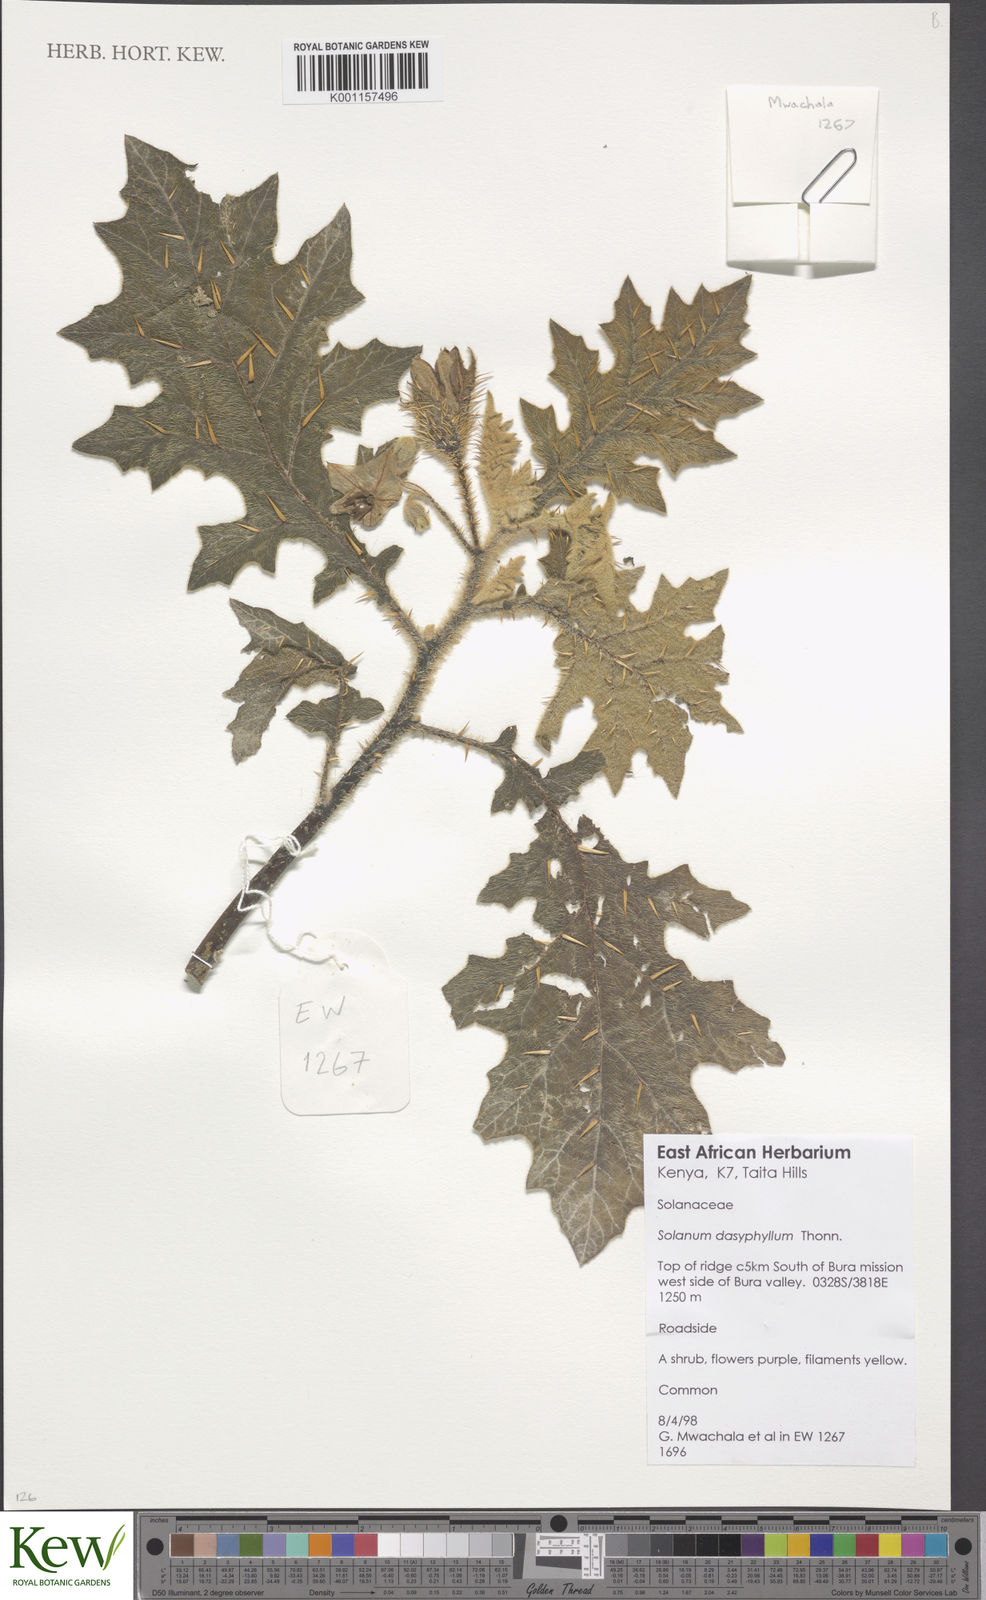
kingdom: Plantae
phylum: Tracheophyta
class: Magnoliopsida
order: Solanales
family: Solanaceae
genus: Solanum
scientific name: Solanum dasyphyllum
